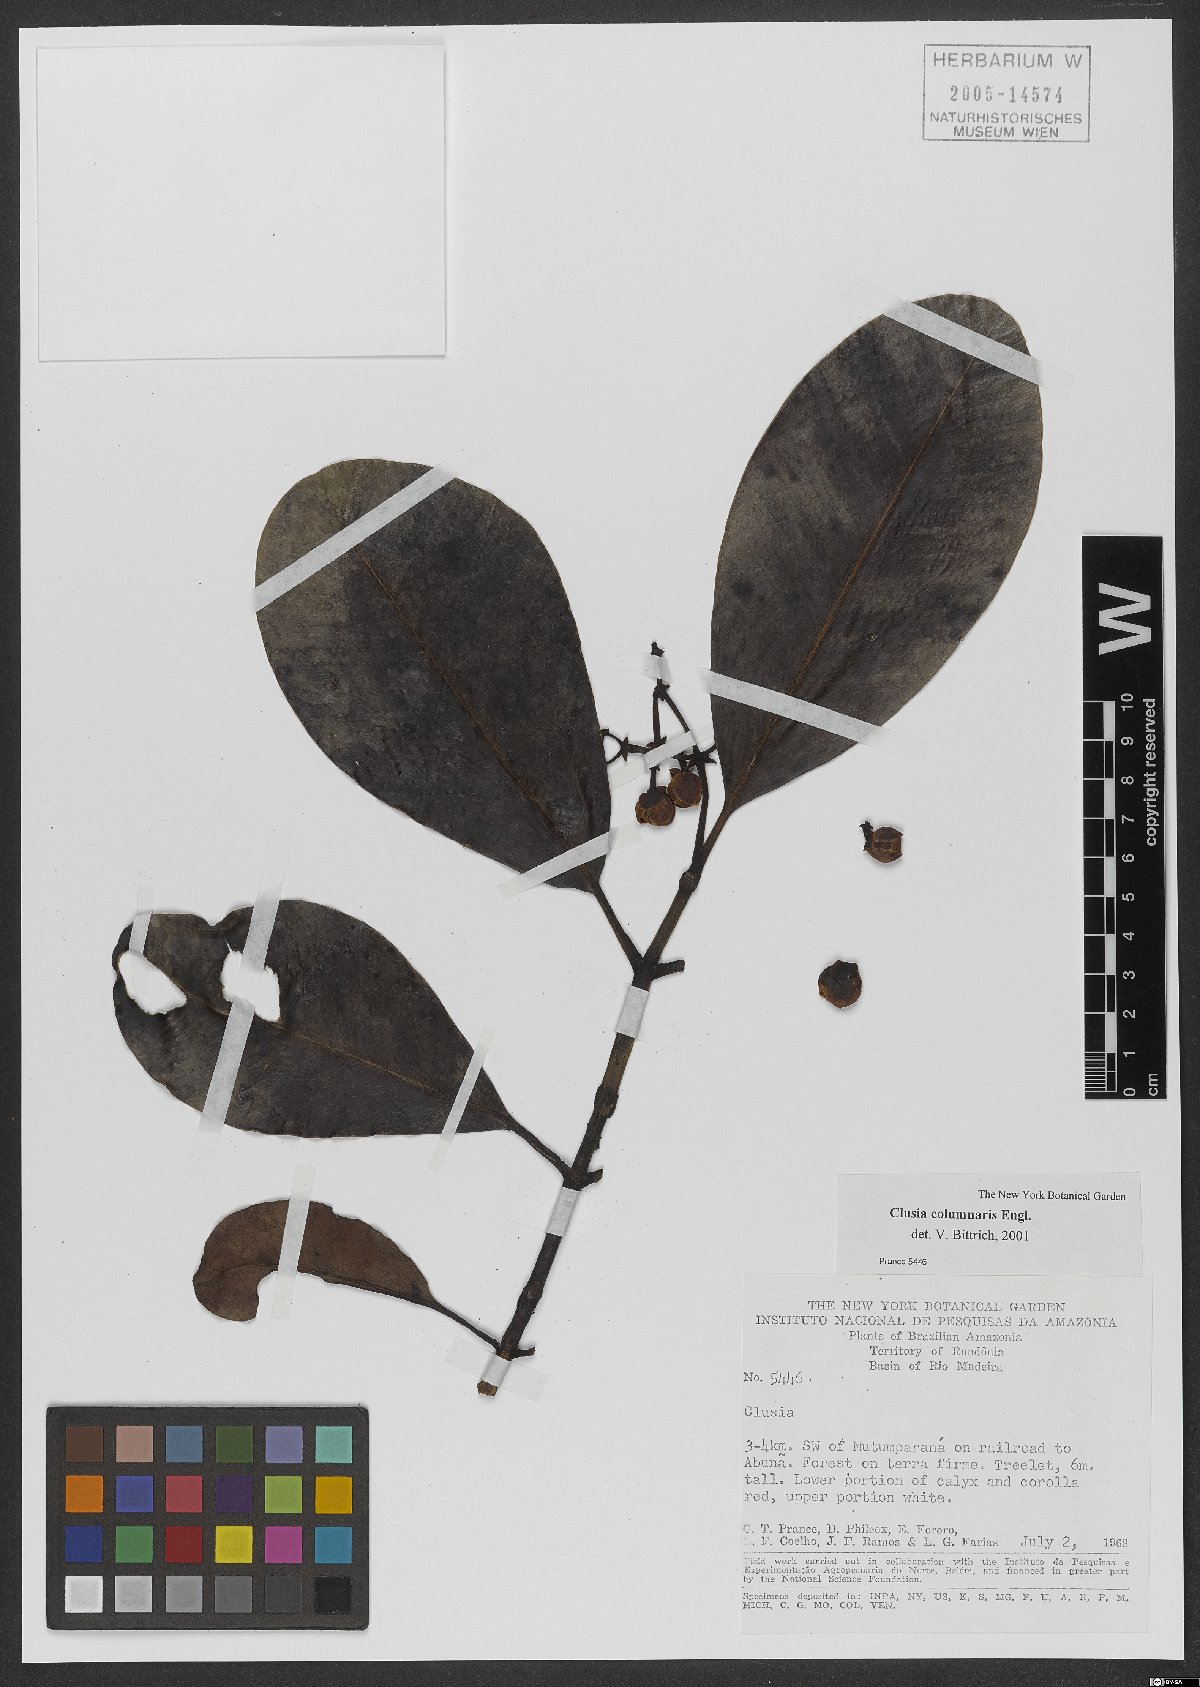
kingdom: Plantae
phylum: Tracheophyta
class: Magnoliopsida
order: Malpighiales
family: Clusiaceae
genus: Clusia
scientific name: Clusia columnaris
